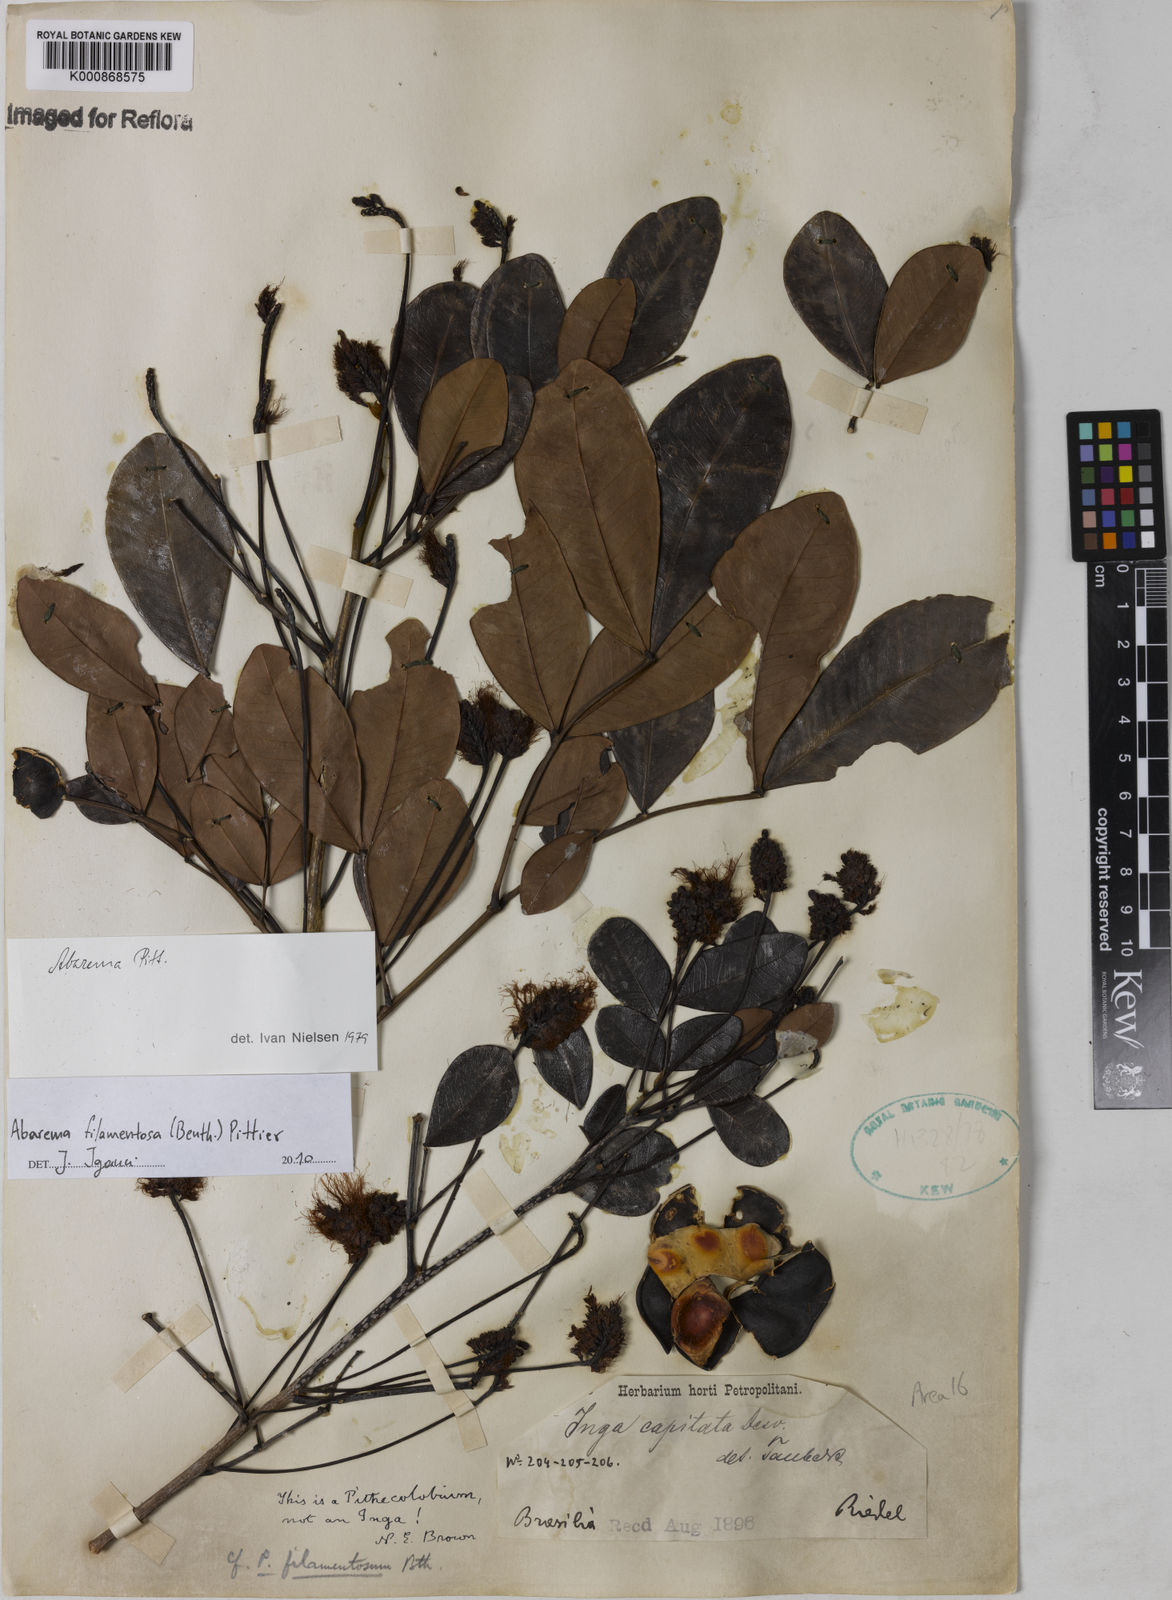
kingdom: Plantae
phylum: Tracheophyta
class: Magnoliopsida
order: Fabales
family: Fabaceae
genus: Jupunba
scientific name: Jupunba filamentosa
